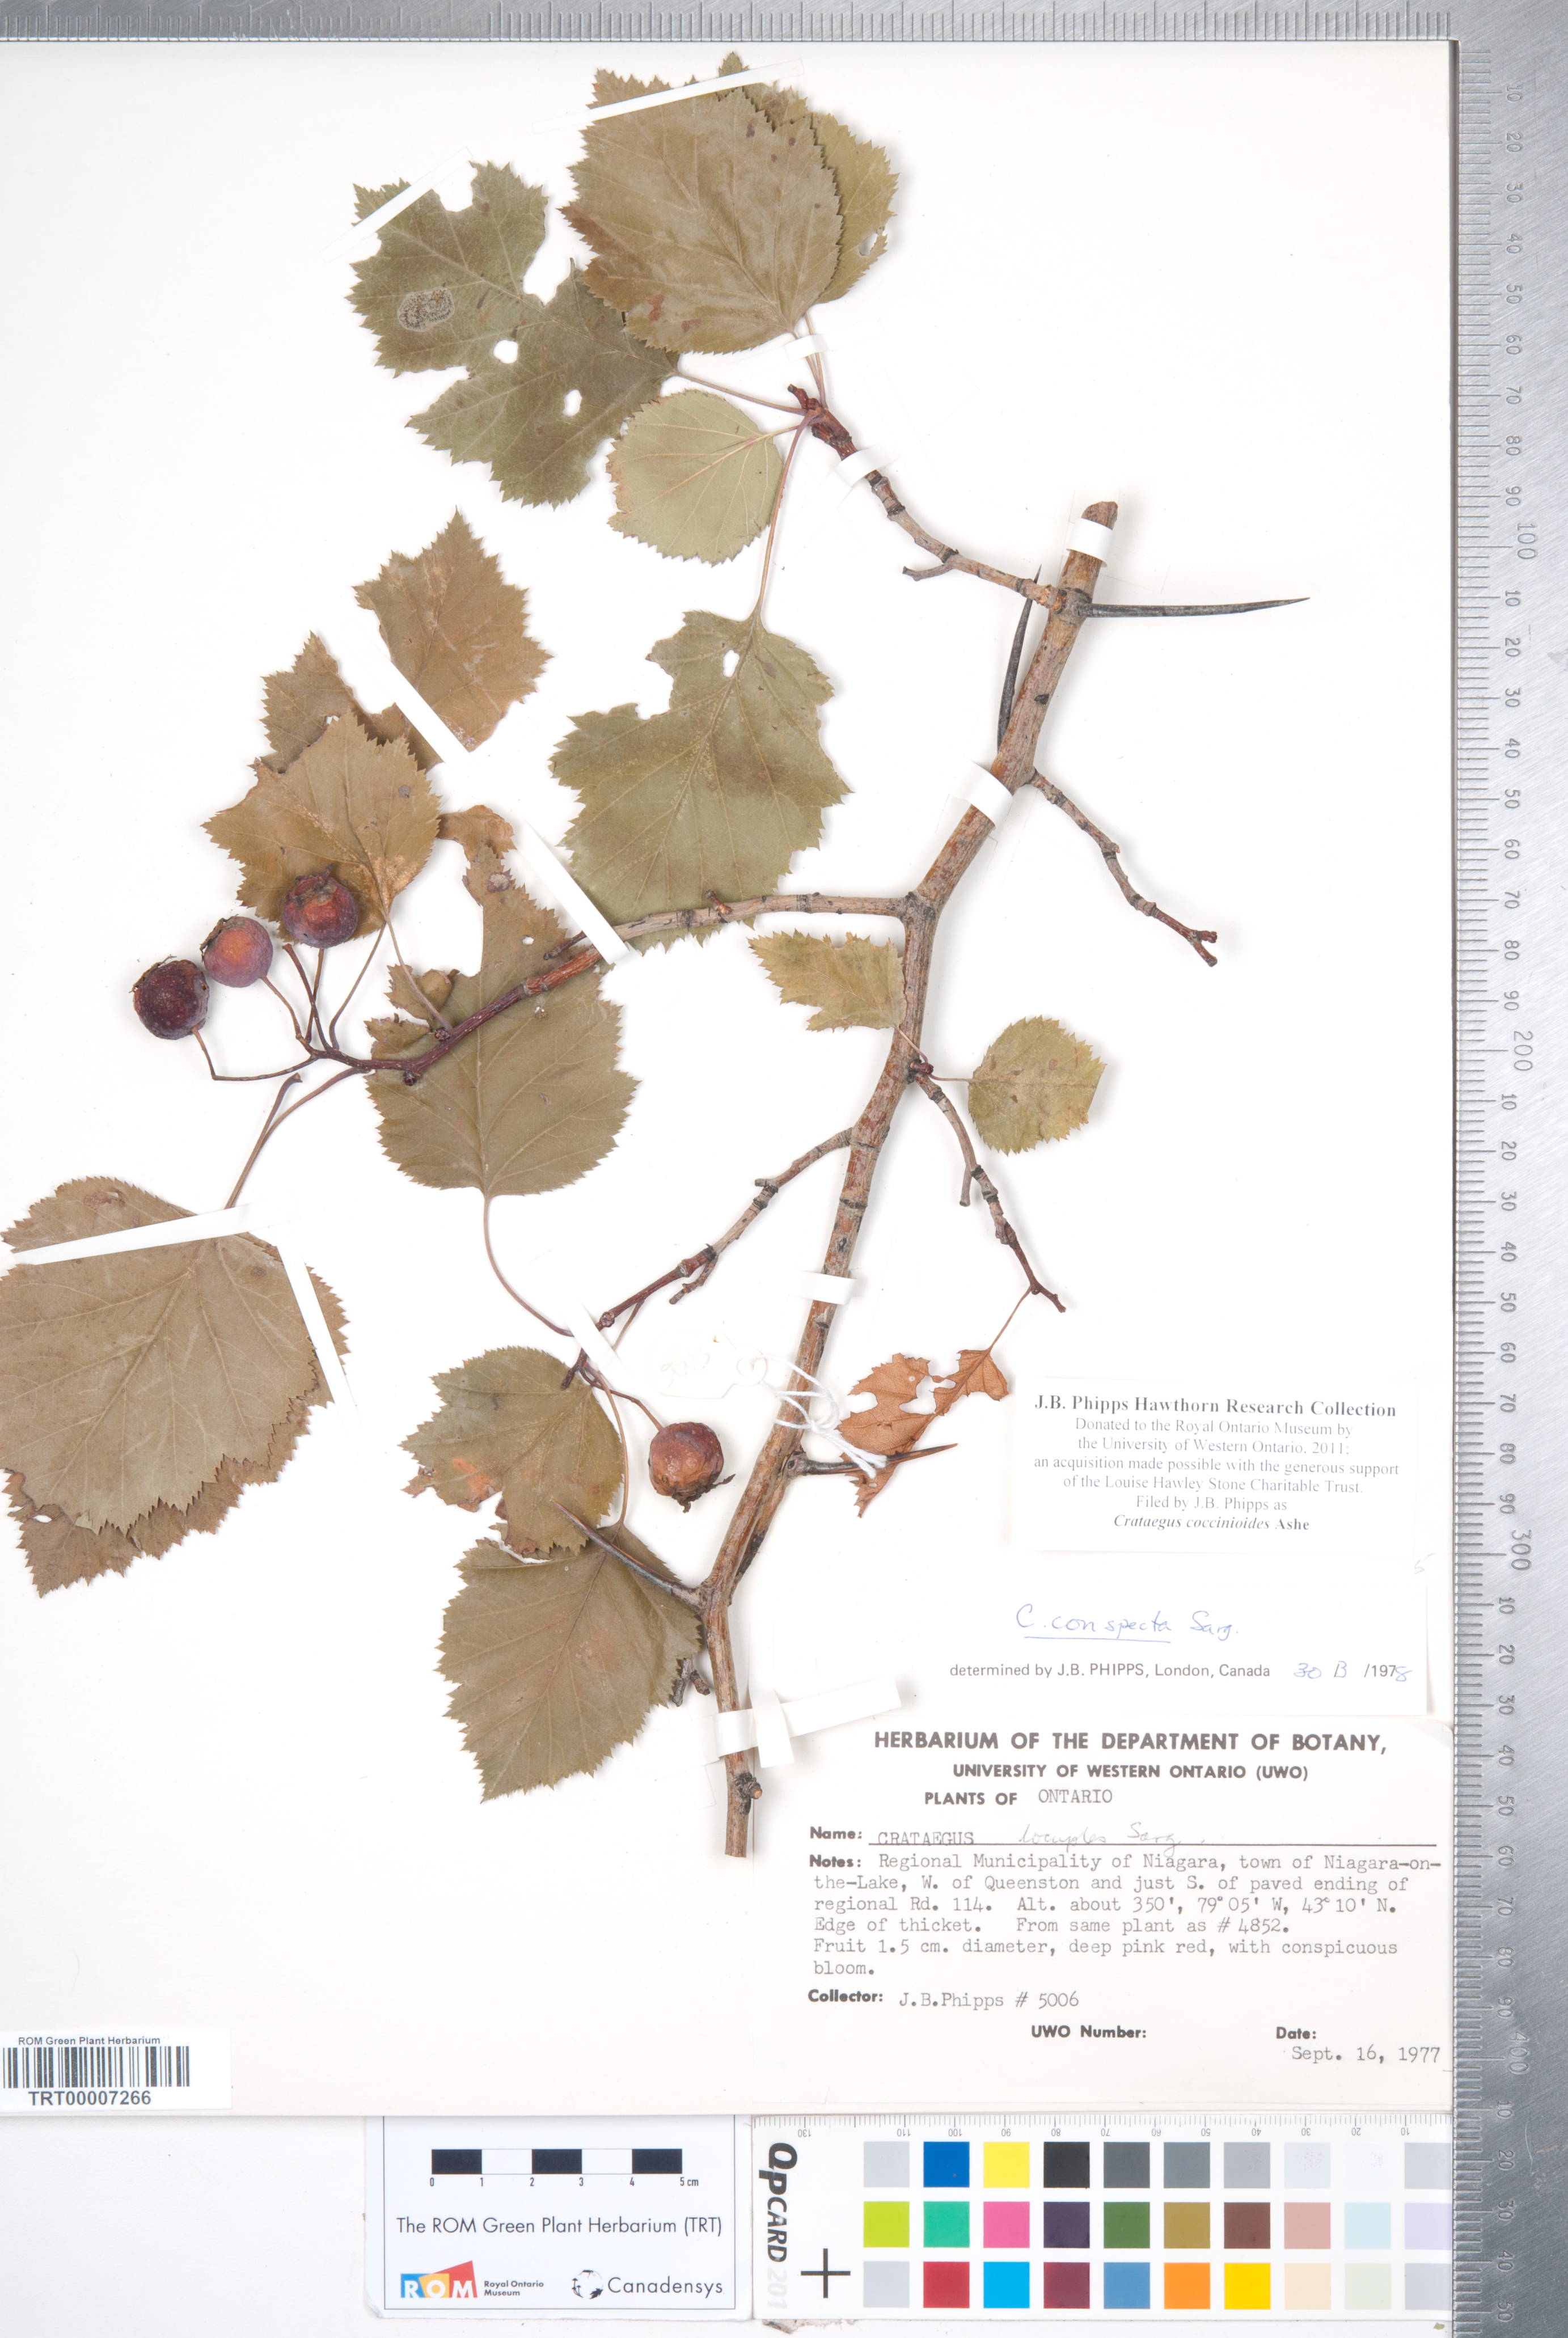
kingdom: Plantae
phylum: Tracheophyta
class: Magnoliopsida
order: Rosales
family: Rosaceae
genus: Crataegus
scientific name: Crataegus coccinioides
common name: Large-flowered cockspurthorn
